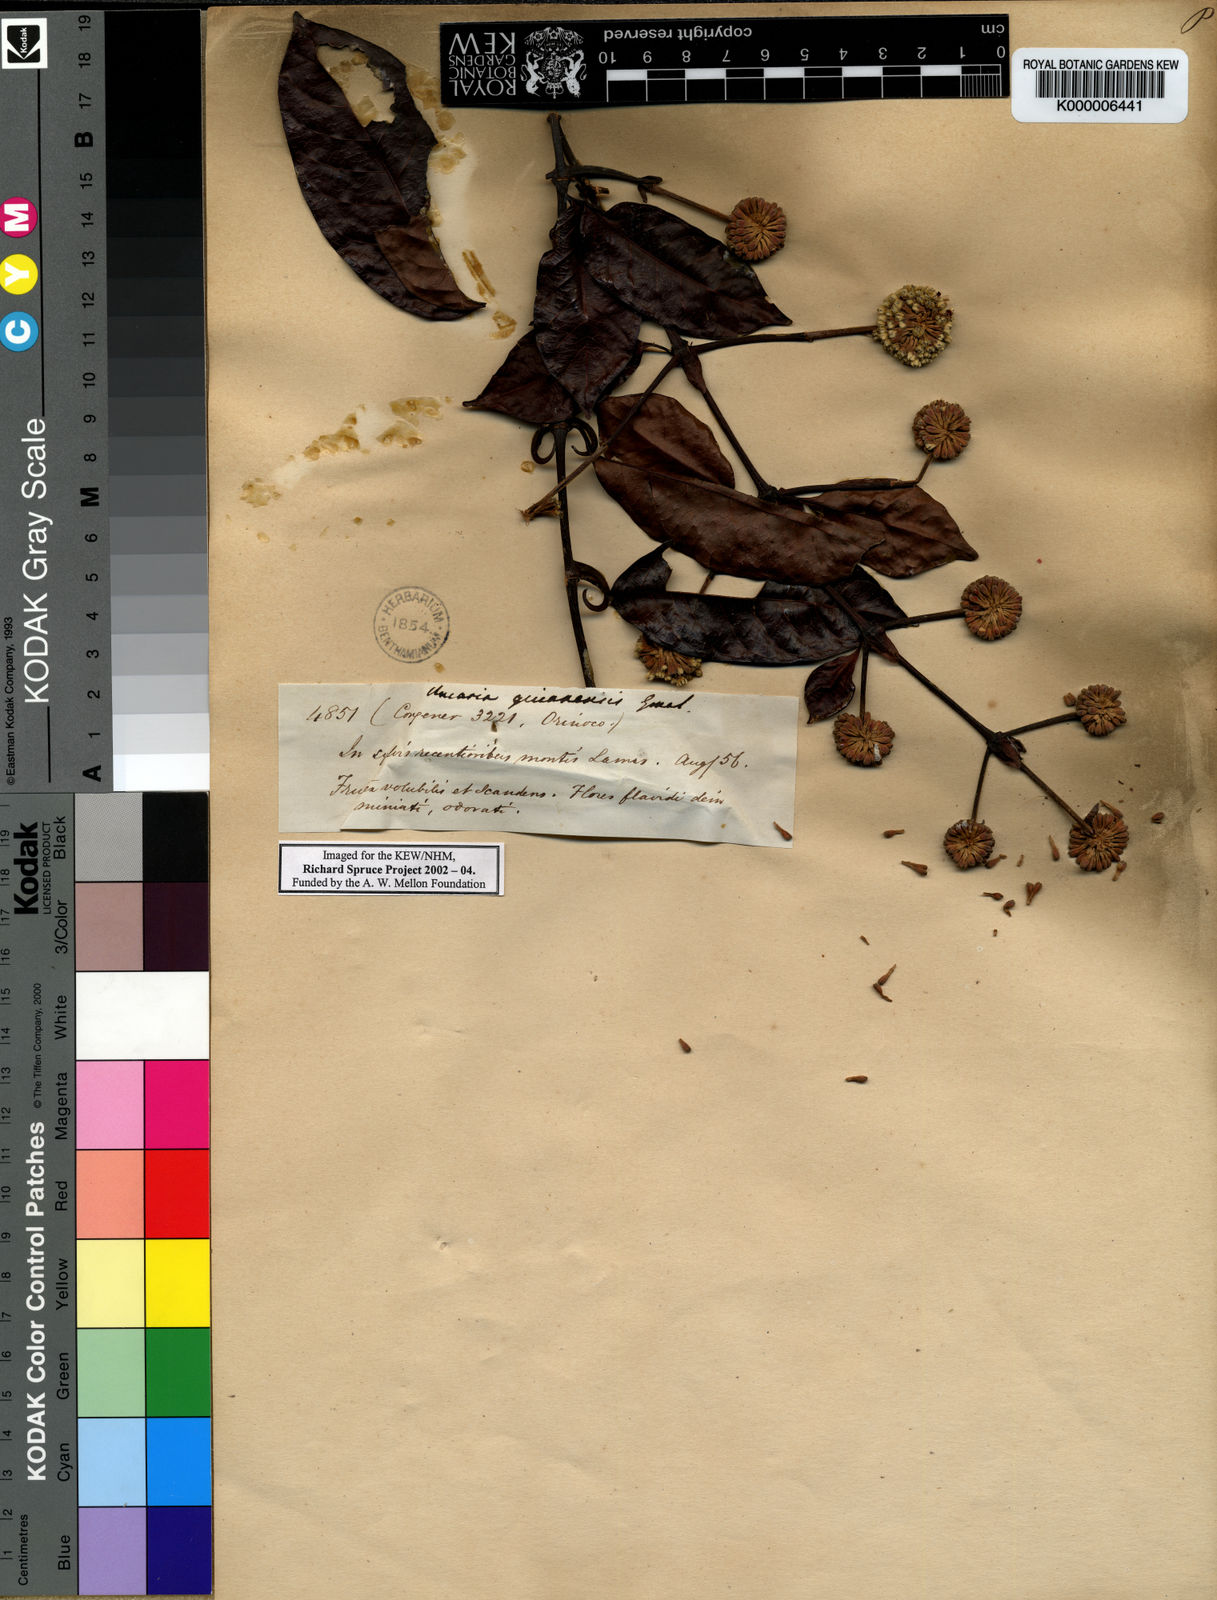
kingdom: Plantae
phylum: Tracheophyta
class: Magnoliopsida
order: Gentianales
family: Rubiaceae
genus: Uncaria
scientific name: Uncaria guianensis
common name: Cat's-claw
